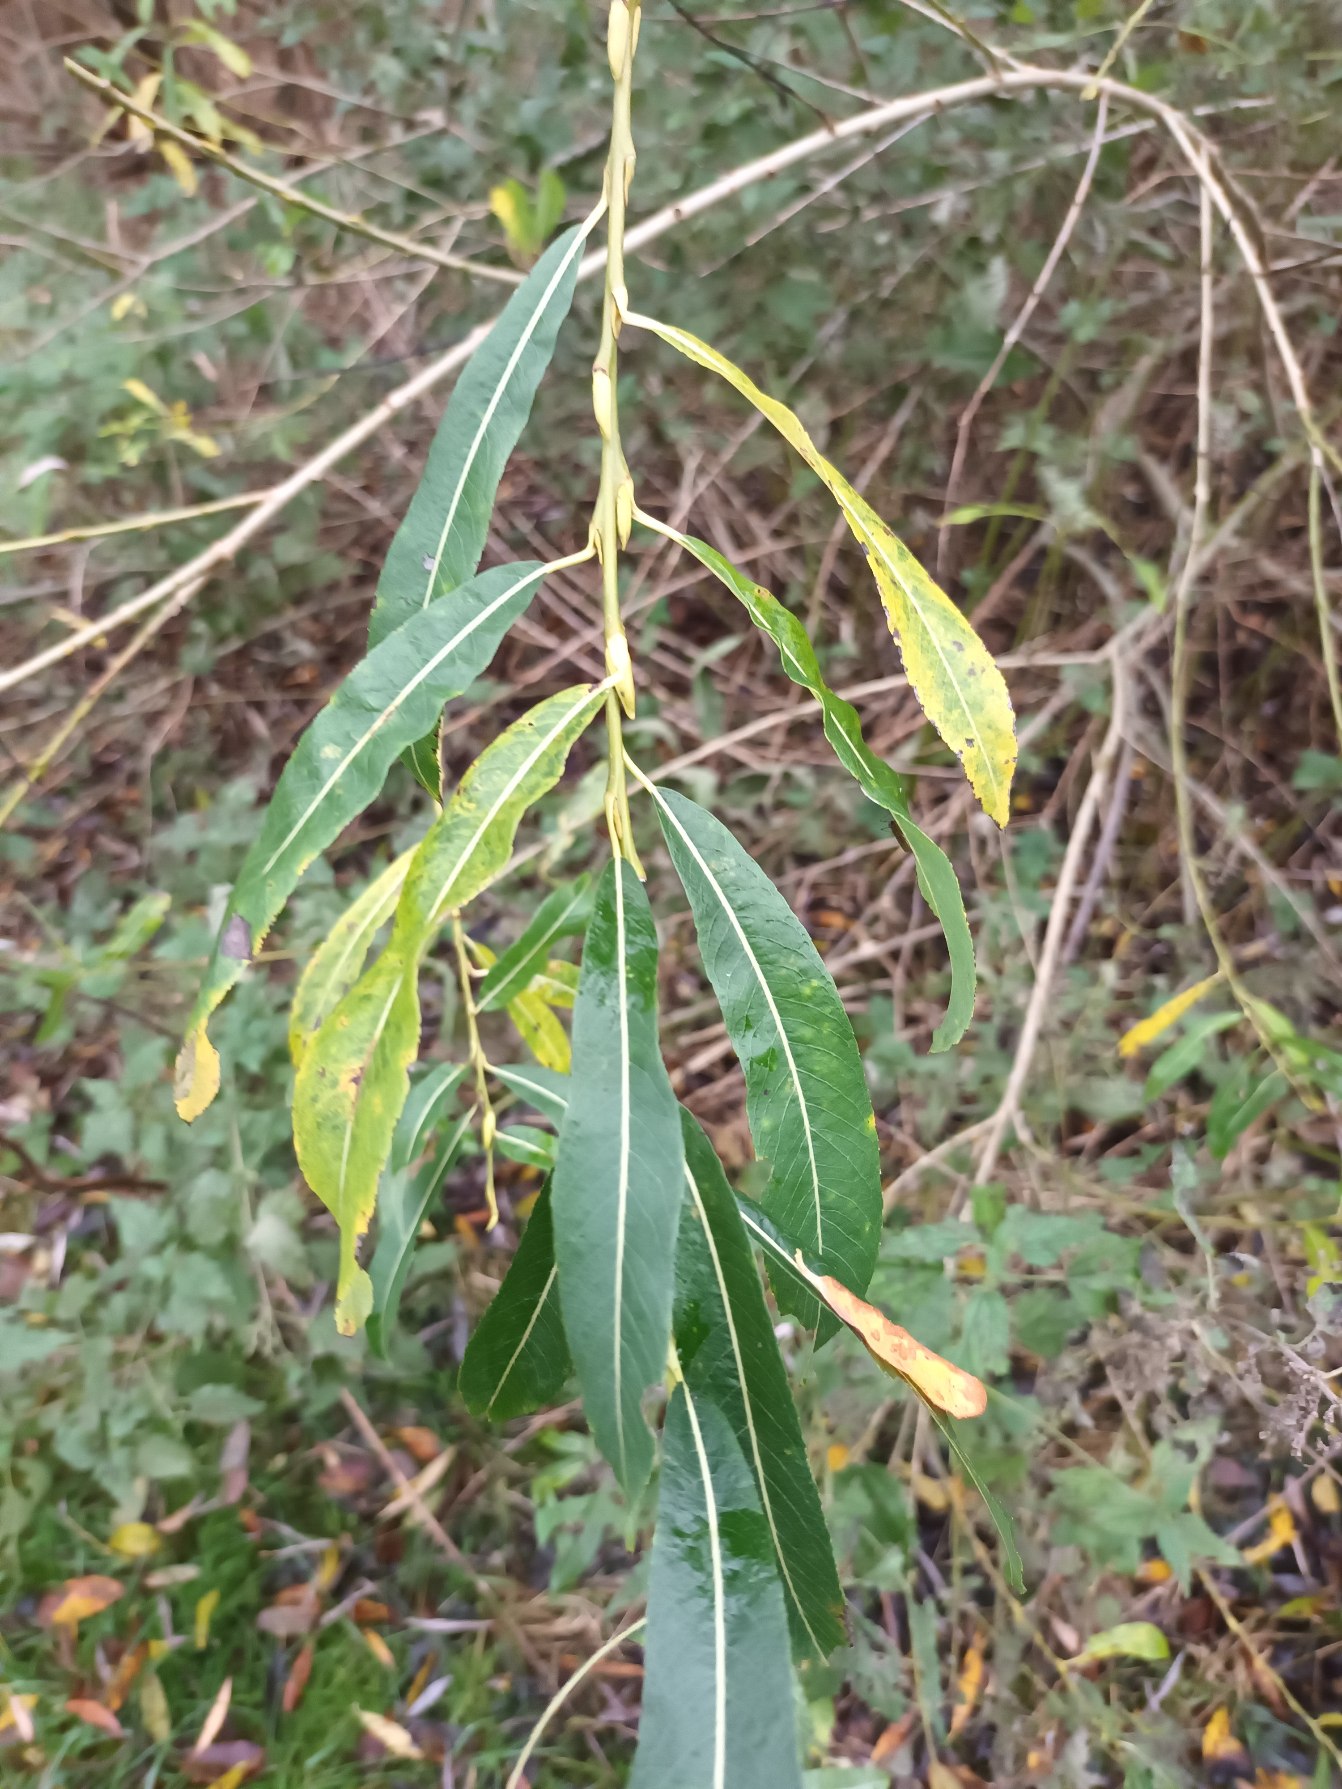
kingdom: Plantae
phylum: Tracheophyta
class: Magnoliopsida
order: Malpighiales
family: Salicaceae
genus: Salix
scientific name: Salix purpurea
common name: Purpur-pil
